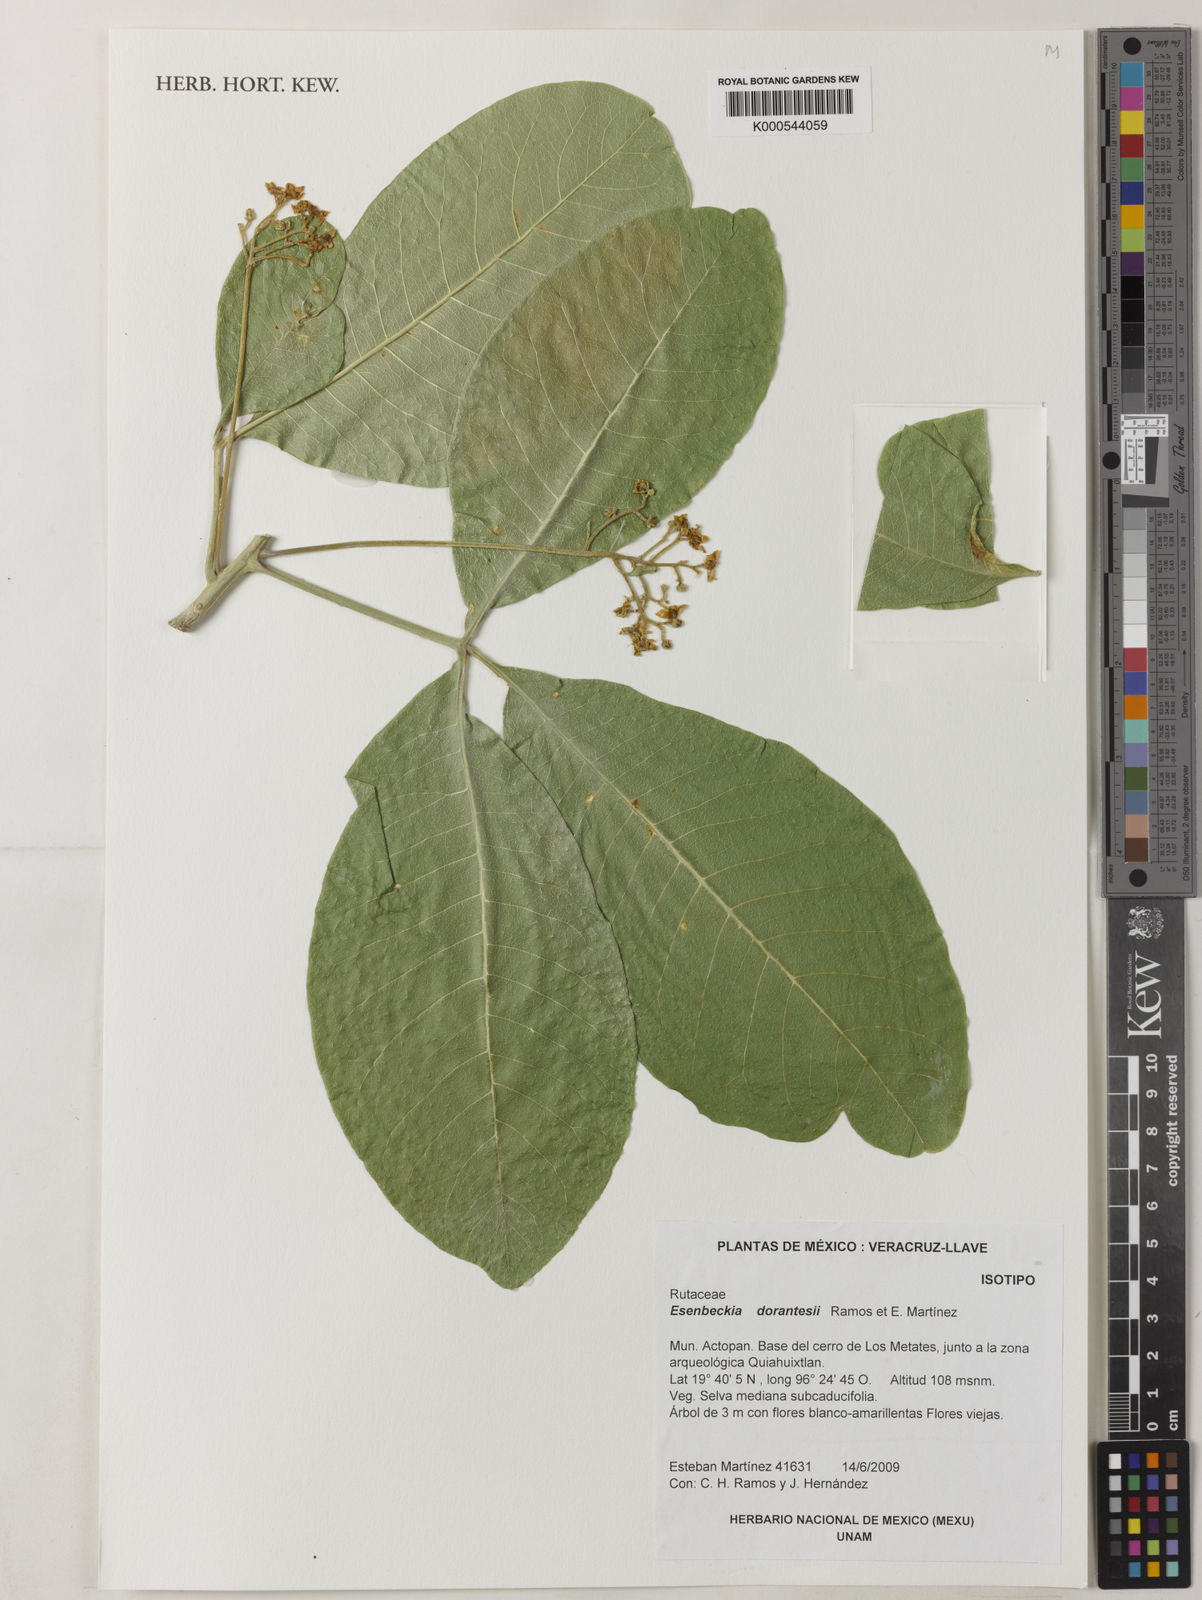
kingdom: Plantae
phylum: Tracheophyta
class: Magnoliopsida
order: Sapindales
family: Rutaceae
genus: Esenbeckia
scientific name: Esenbeckia
